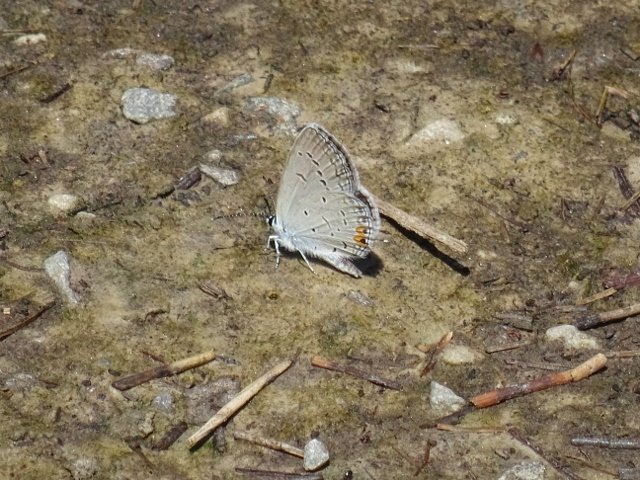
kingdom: Animalia
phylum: Arthropoda
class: Insecta
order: Lepidoptera
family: Lycaenidae
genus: Elkalyce
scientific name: Elkalyce comyntas
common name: Eastern Tailed-Blue
